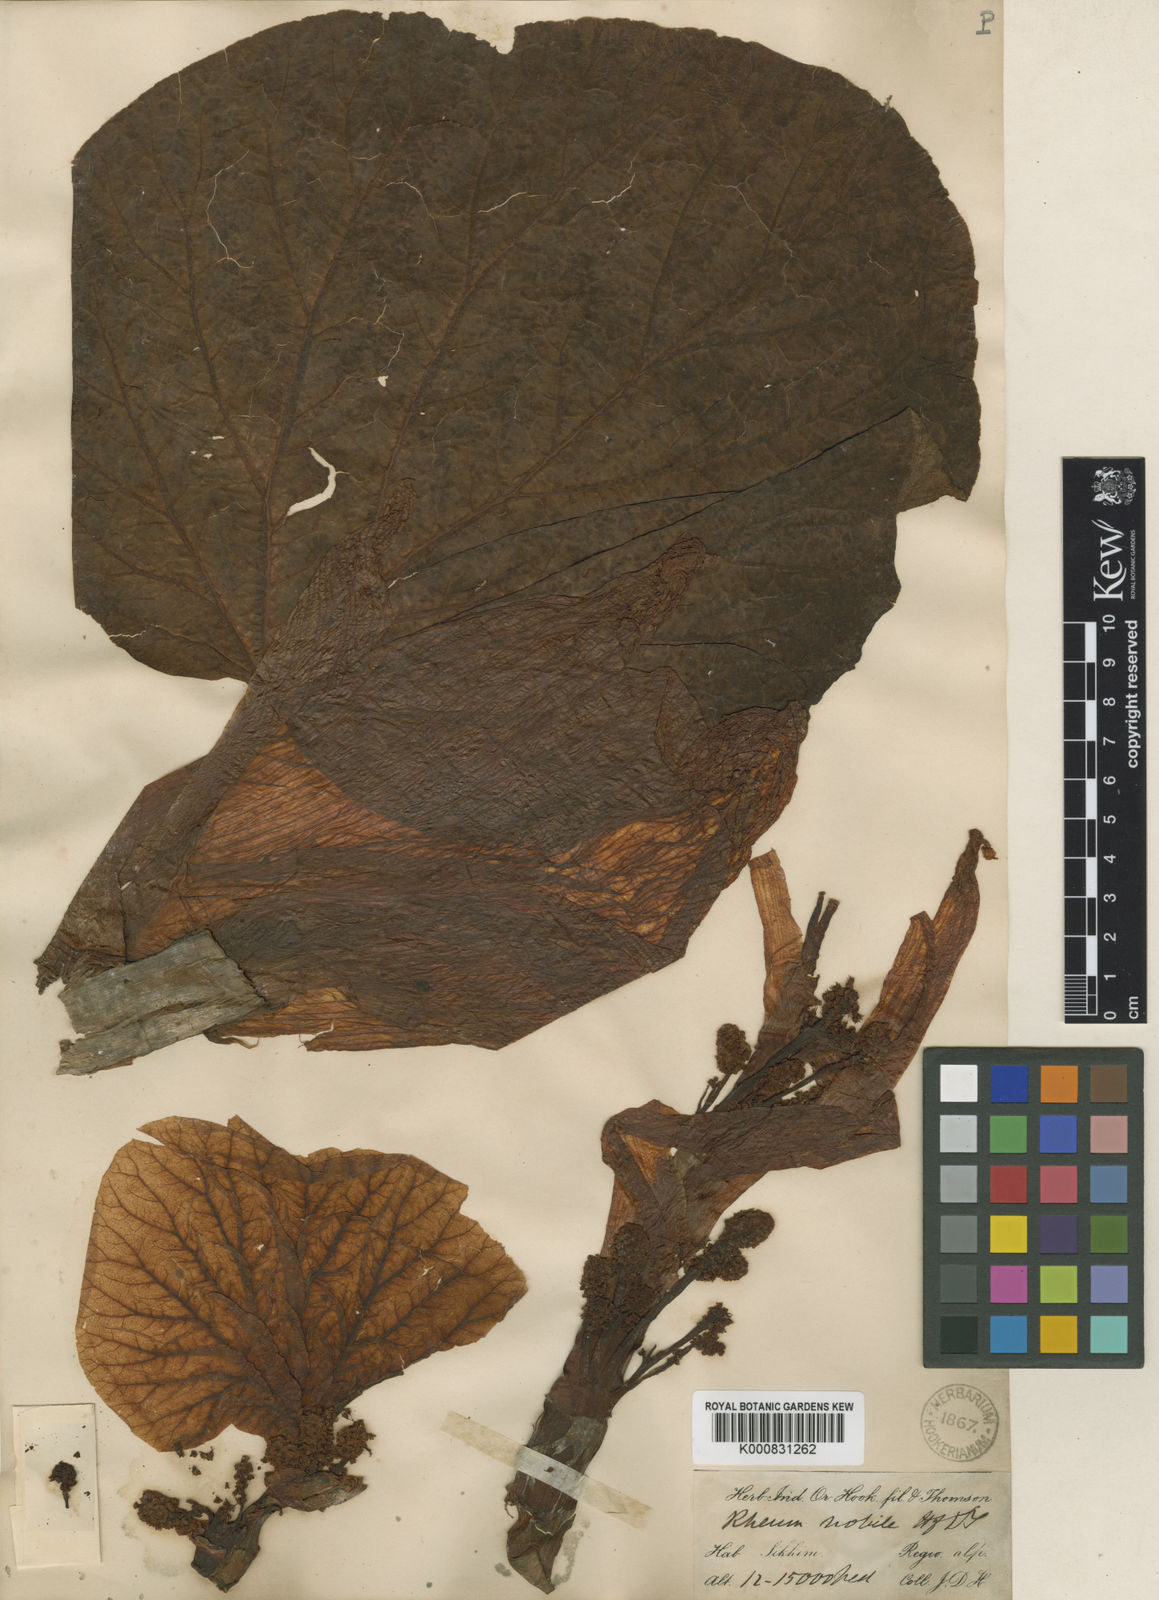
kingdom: Plantae
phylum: Tracheophyta
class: Magnoliopsida
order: Caryophyllales
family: Polygonaceae
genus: Rheum
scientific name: Rheum nobile
